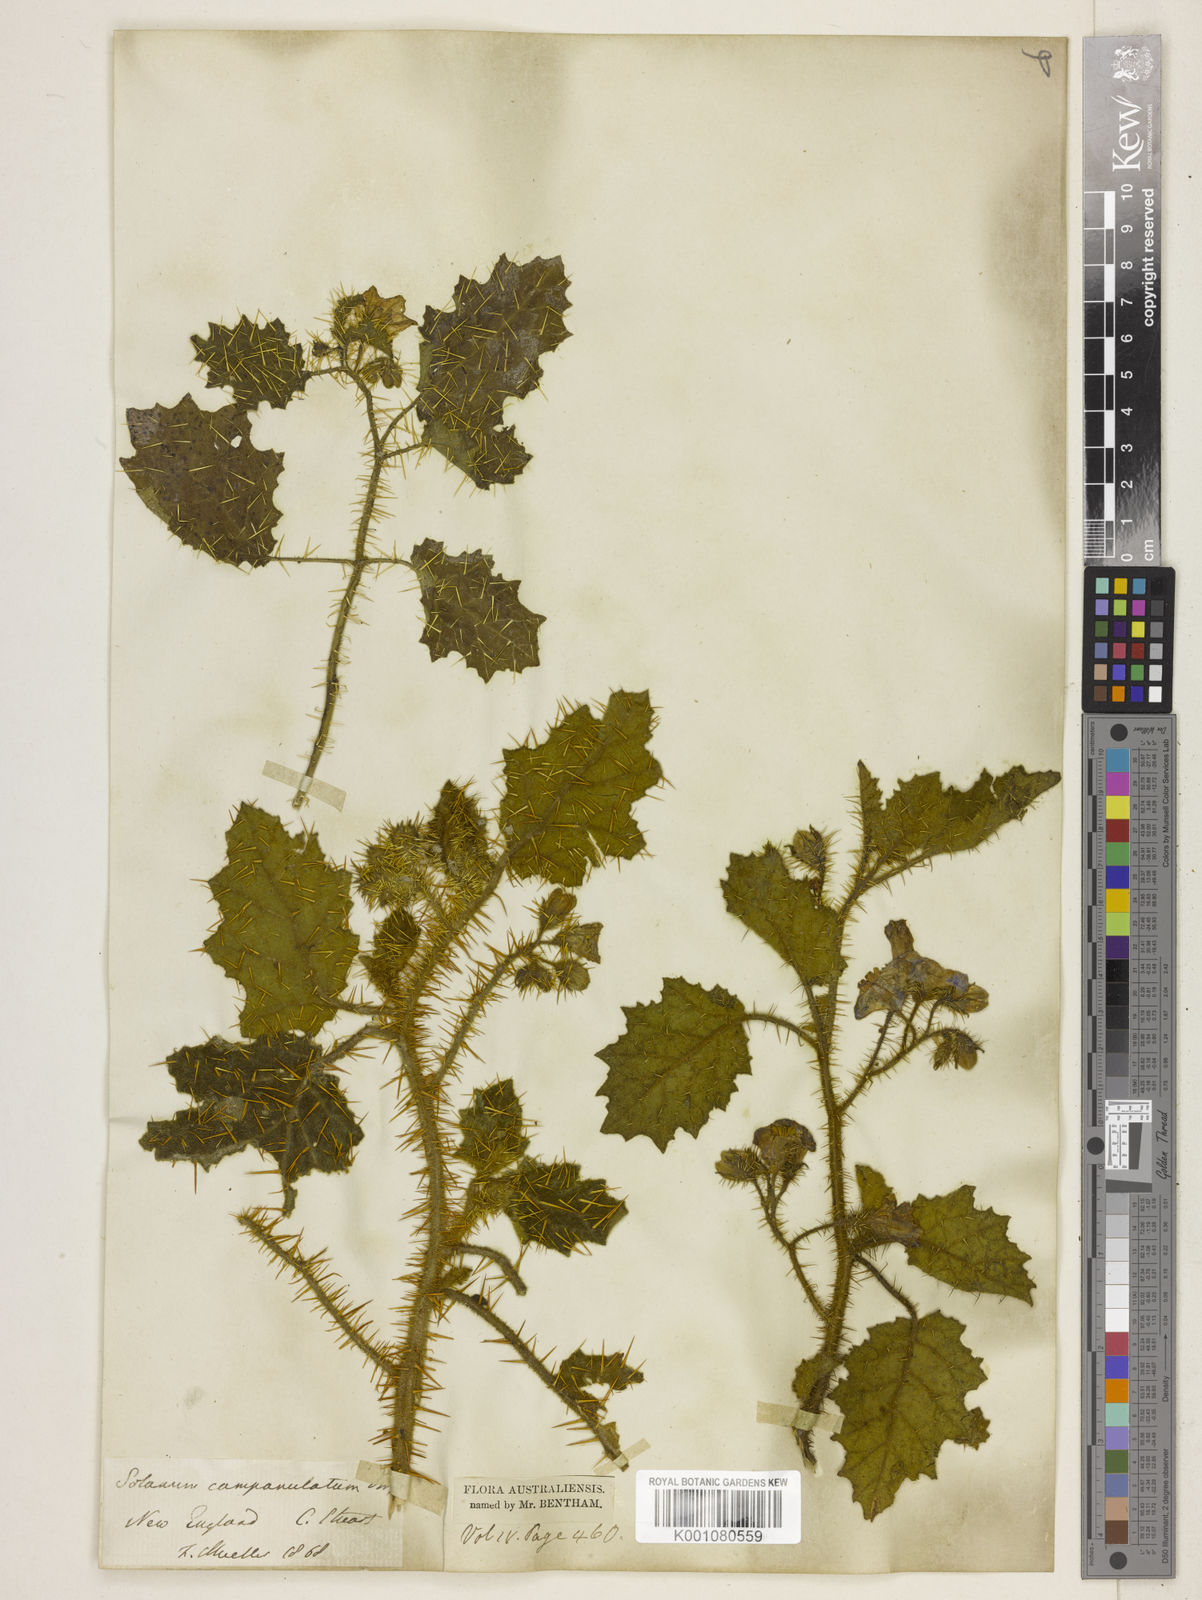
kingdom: Plantae
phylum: Tracheophyta
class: Magnoliopsida
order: Solanales
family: Solanaceae
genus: Solanum
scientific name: Solanum campanulatum
